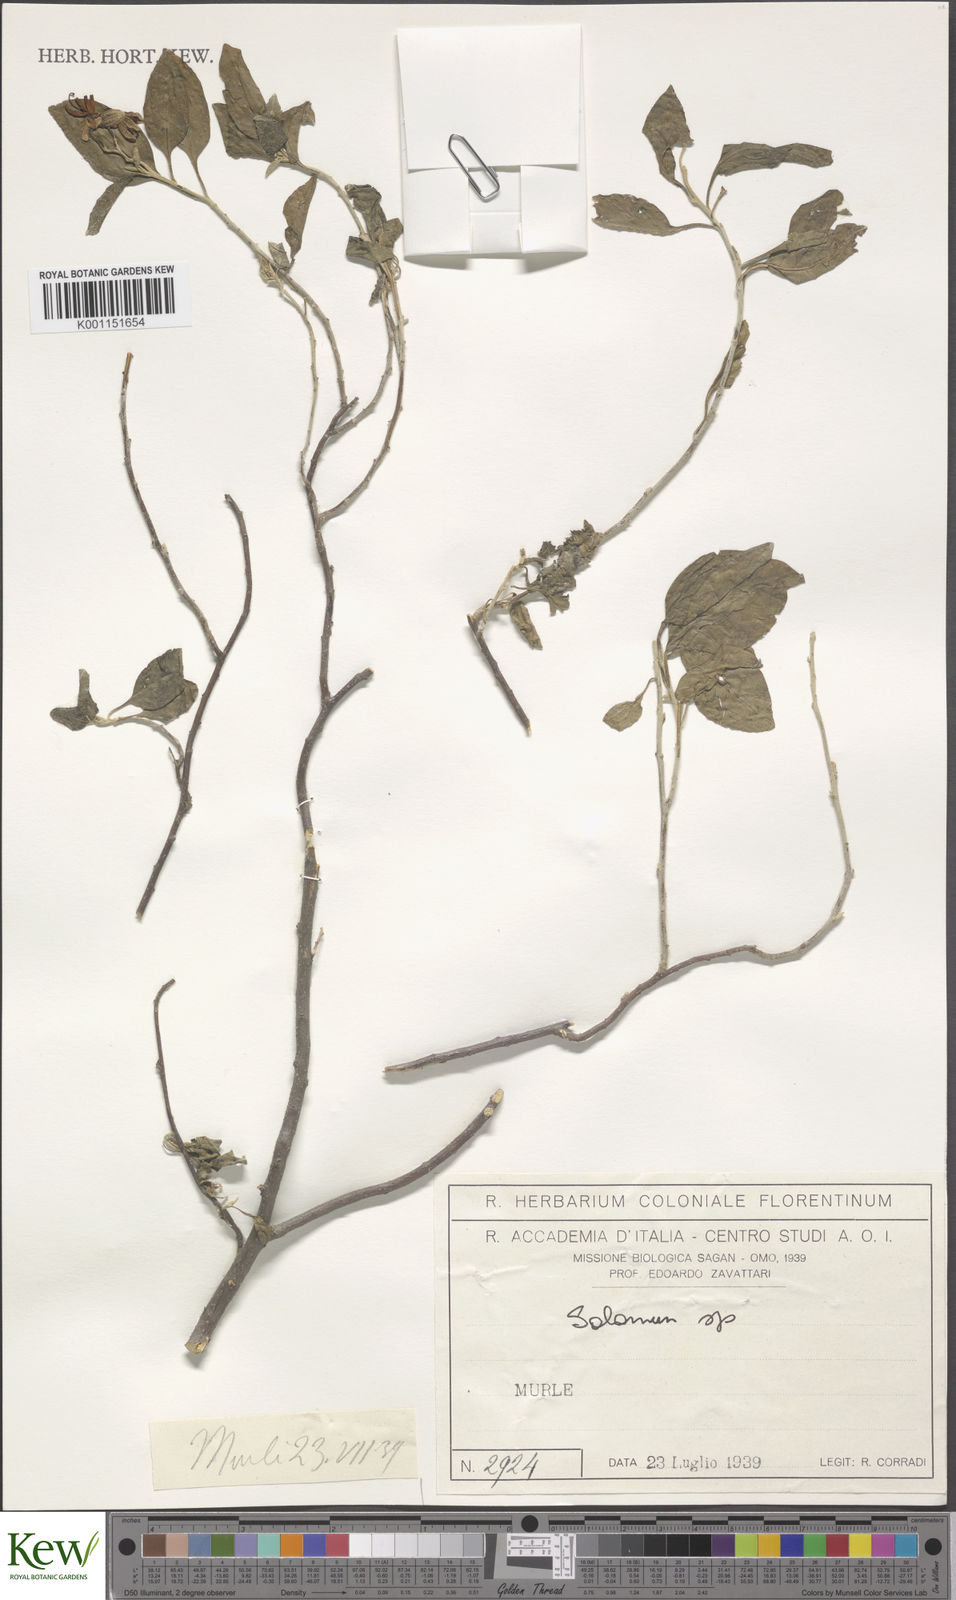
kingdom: Plantae
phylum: Tracheophyta
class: Magnoliopsida
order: Solanales
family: Solanaceae
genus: Solanum
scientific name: Solanum
